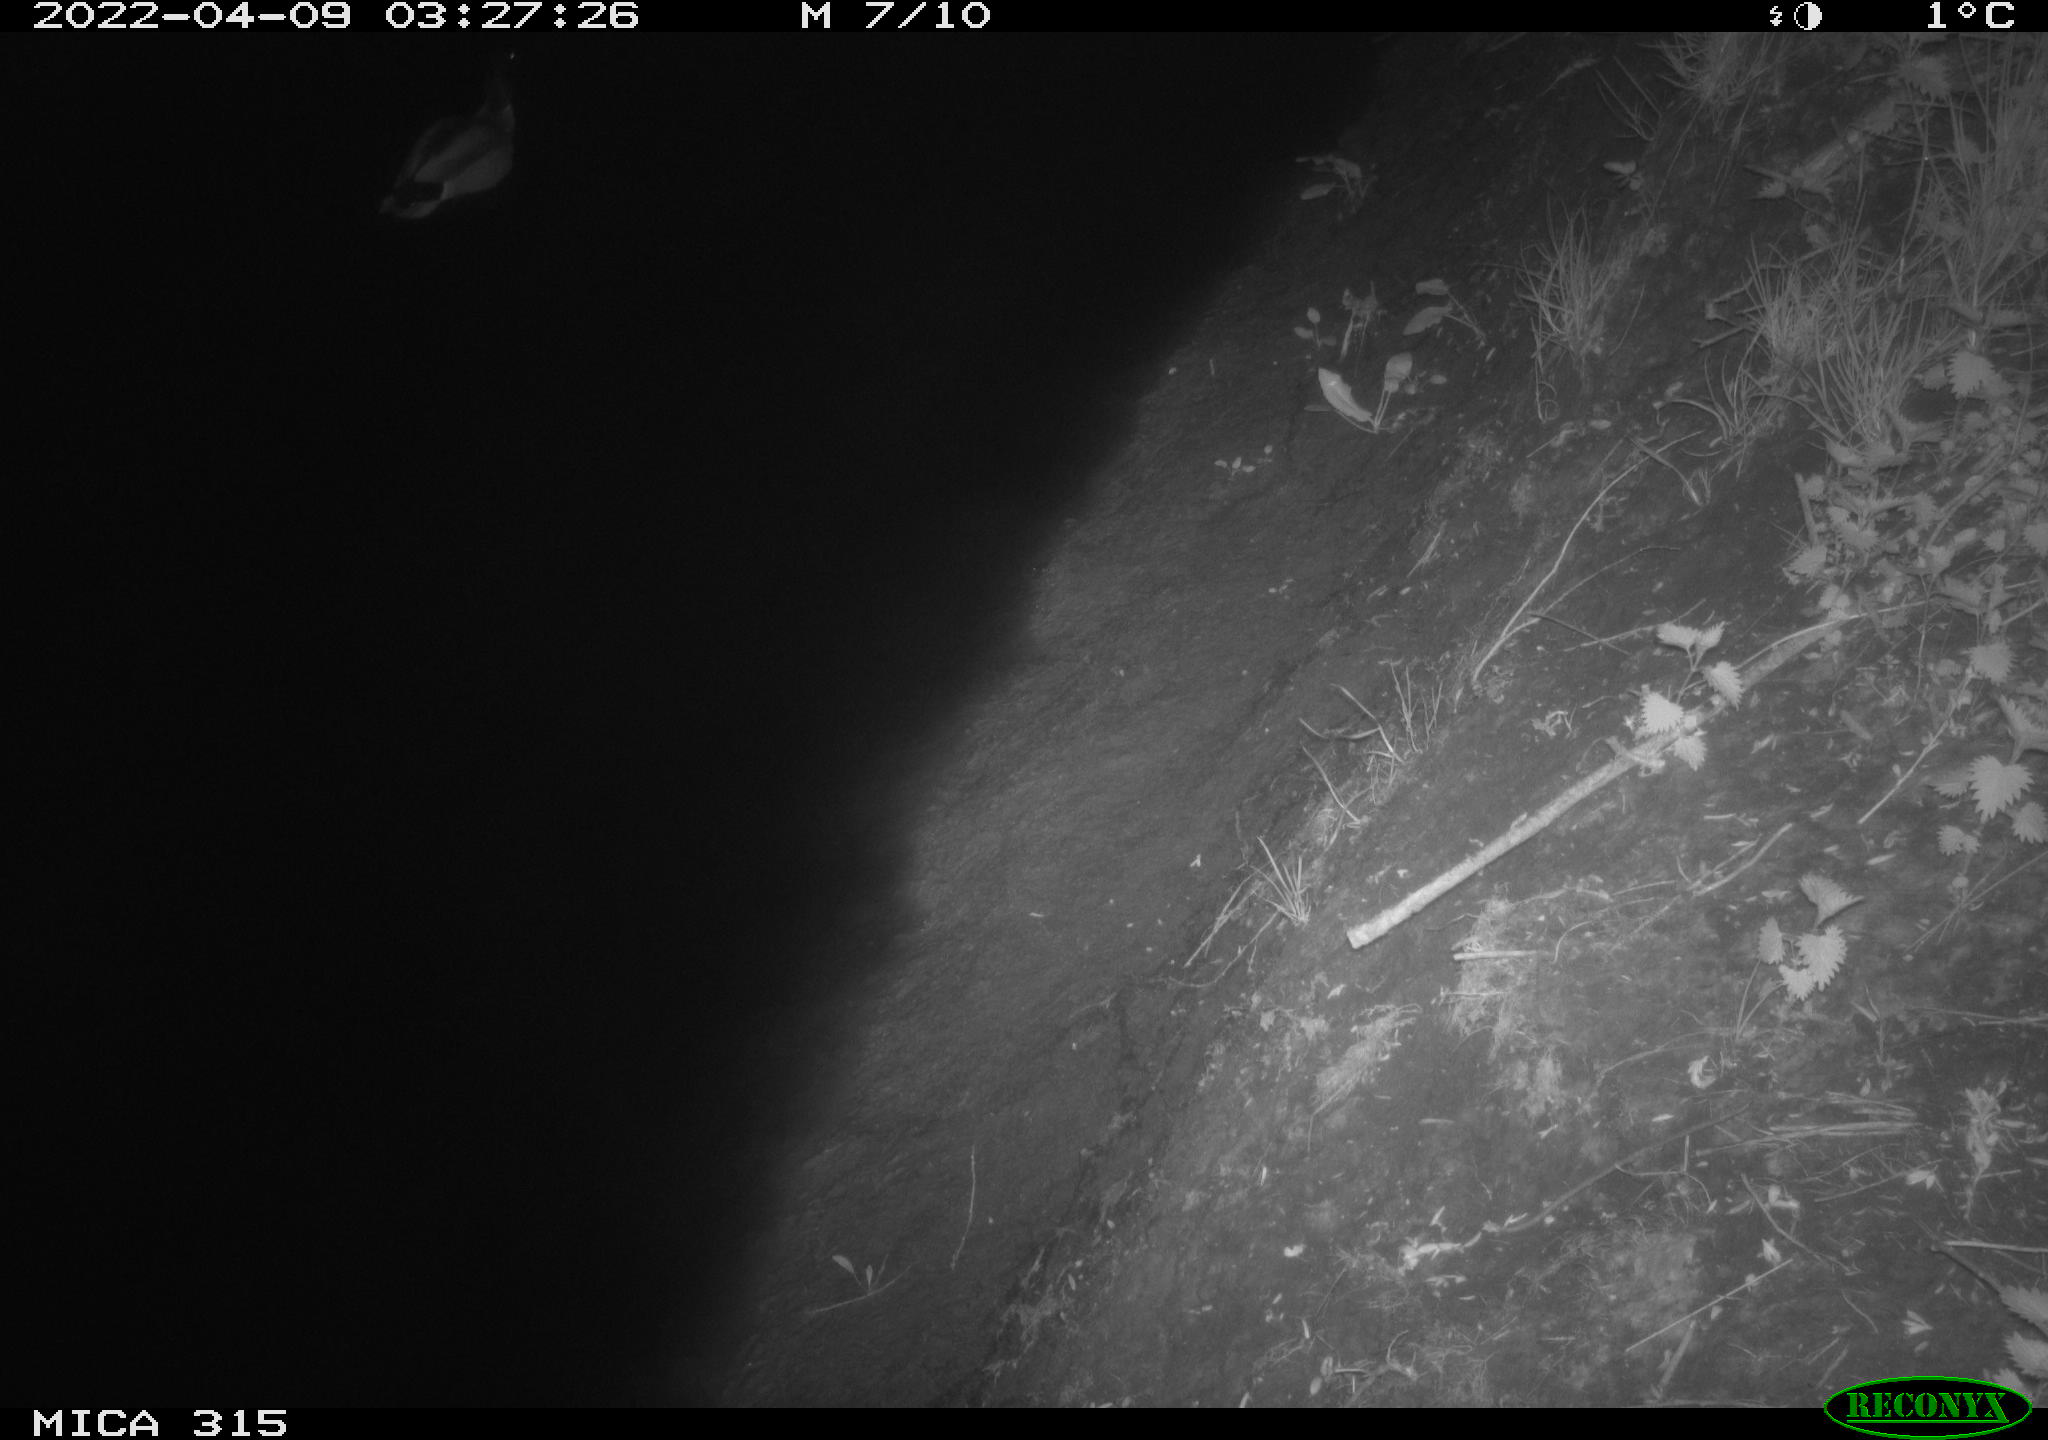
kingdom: Animalia
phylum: Chordata
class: Aves
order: Anseriformes
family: Anatidae
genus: Anas
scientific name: Anas platyrhynchos
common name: Mallard
